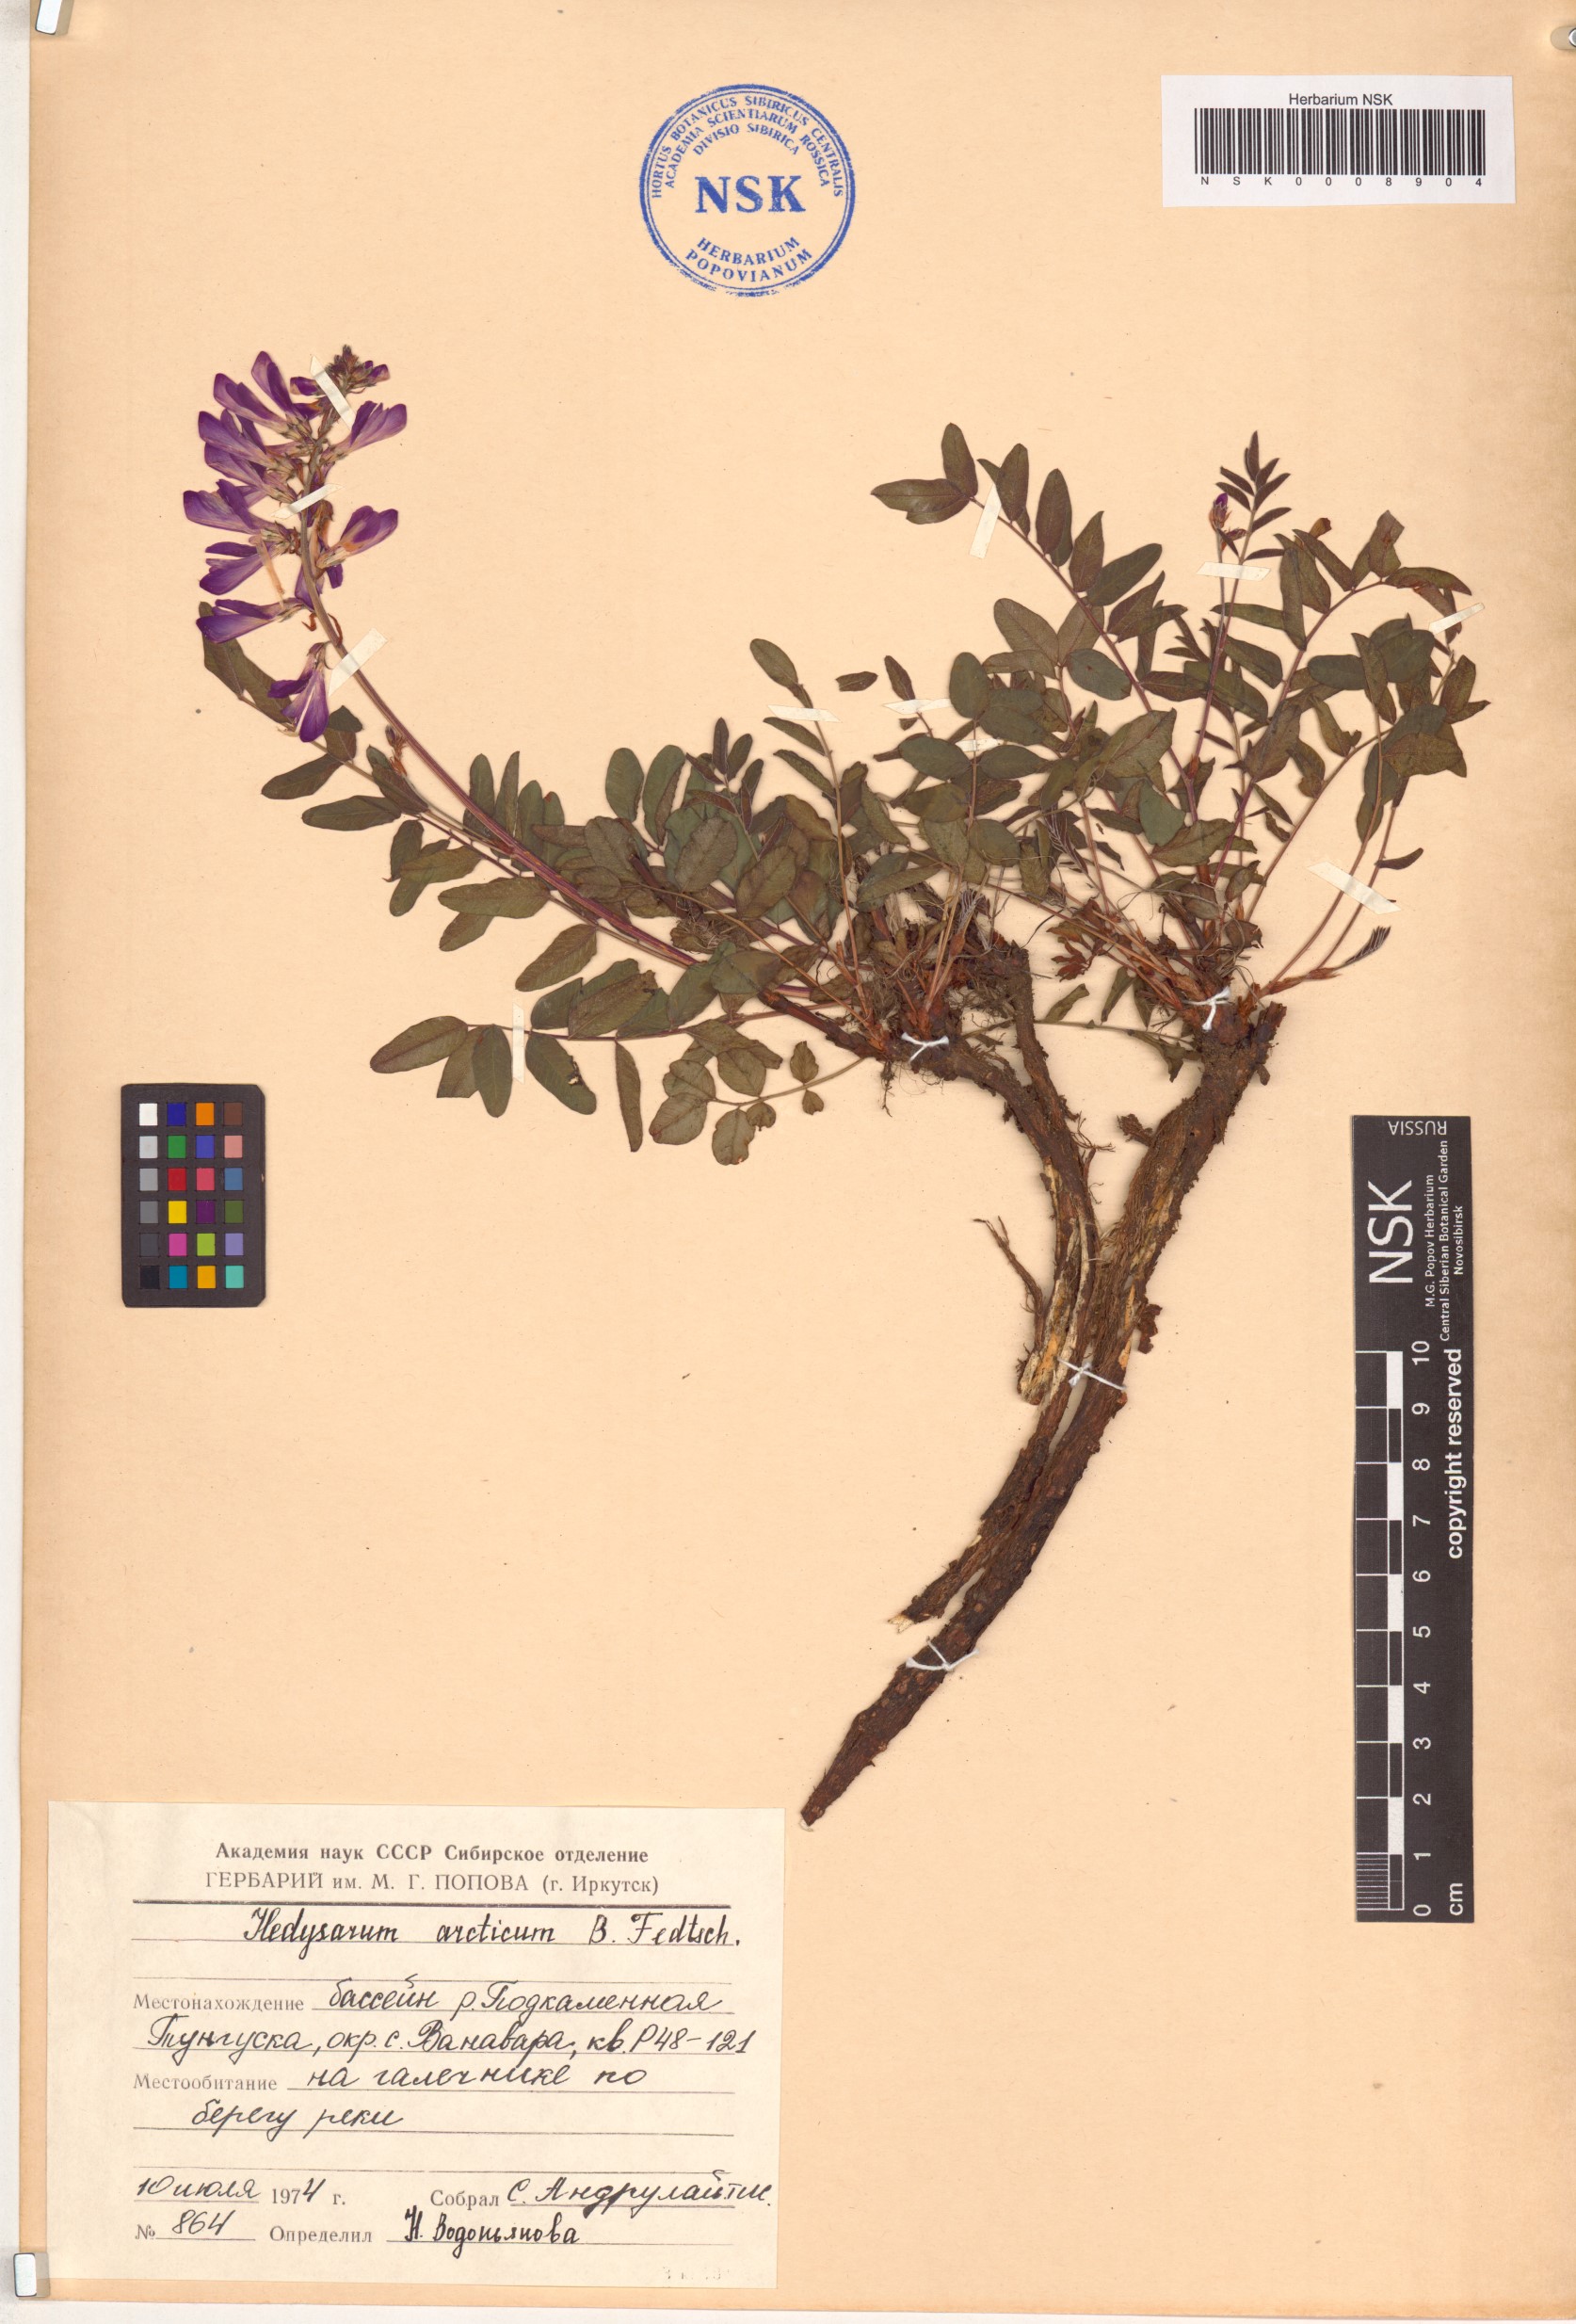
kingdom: Plantae
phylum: Tracheophyta
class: Magnoliopsida
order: Fabales
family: Fabaceae
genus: Hedysarum
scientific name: Hedysarum hedysaroides
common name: Alpine french-honeysuckle
